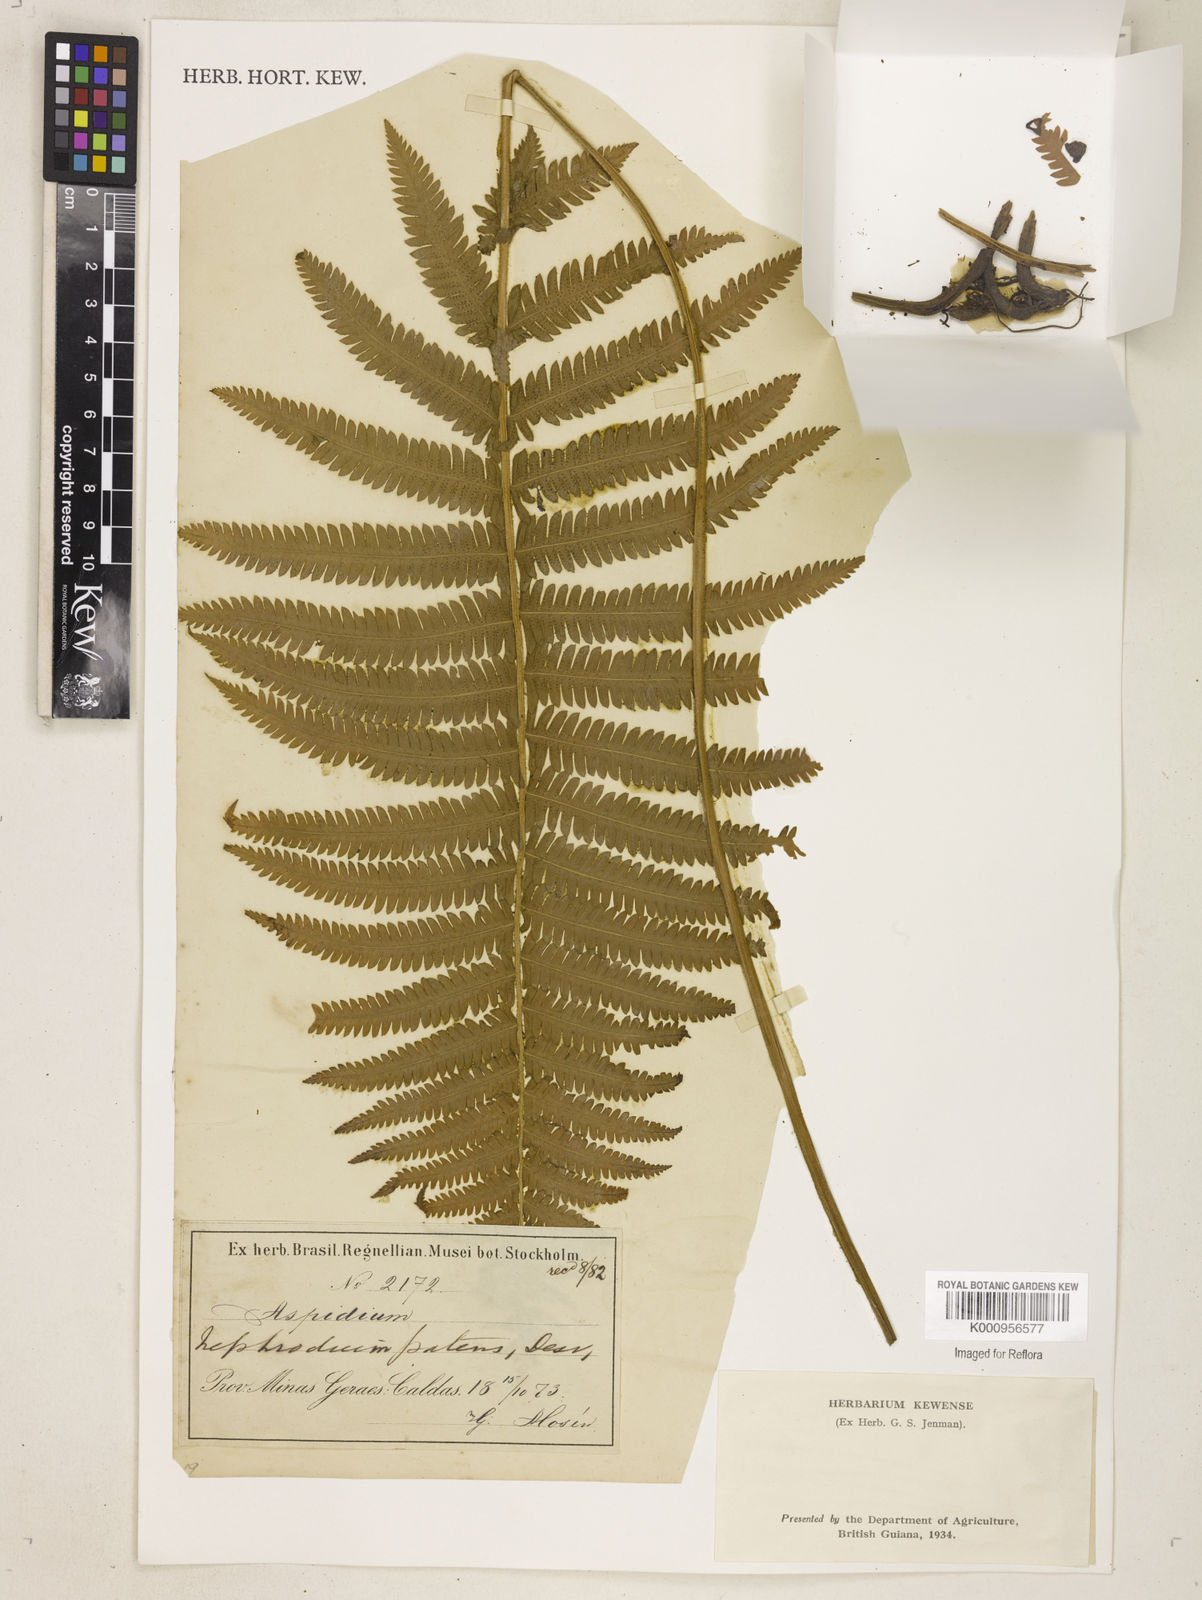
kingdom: Plantae
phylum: Tracheophyta
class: Polypodiopsida
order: Polypodiales
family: Thelypteridaceae
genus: Pelazoneuron
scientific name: Pelazoneuron patens
